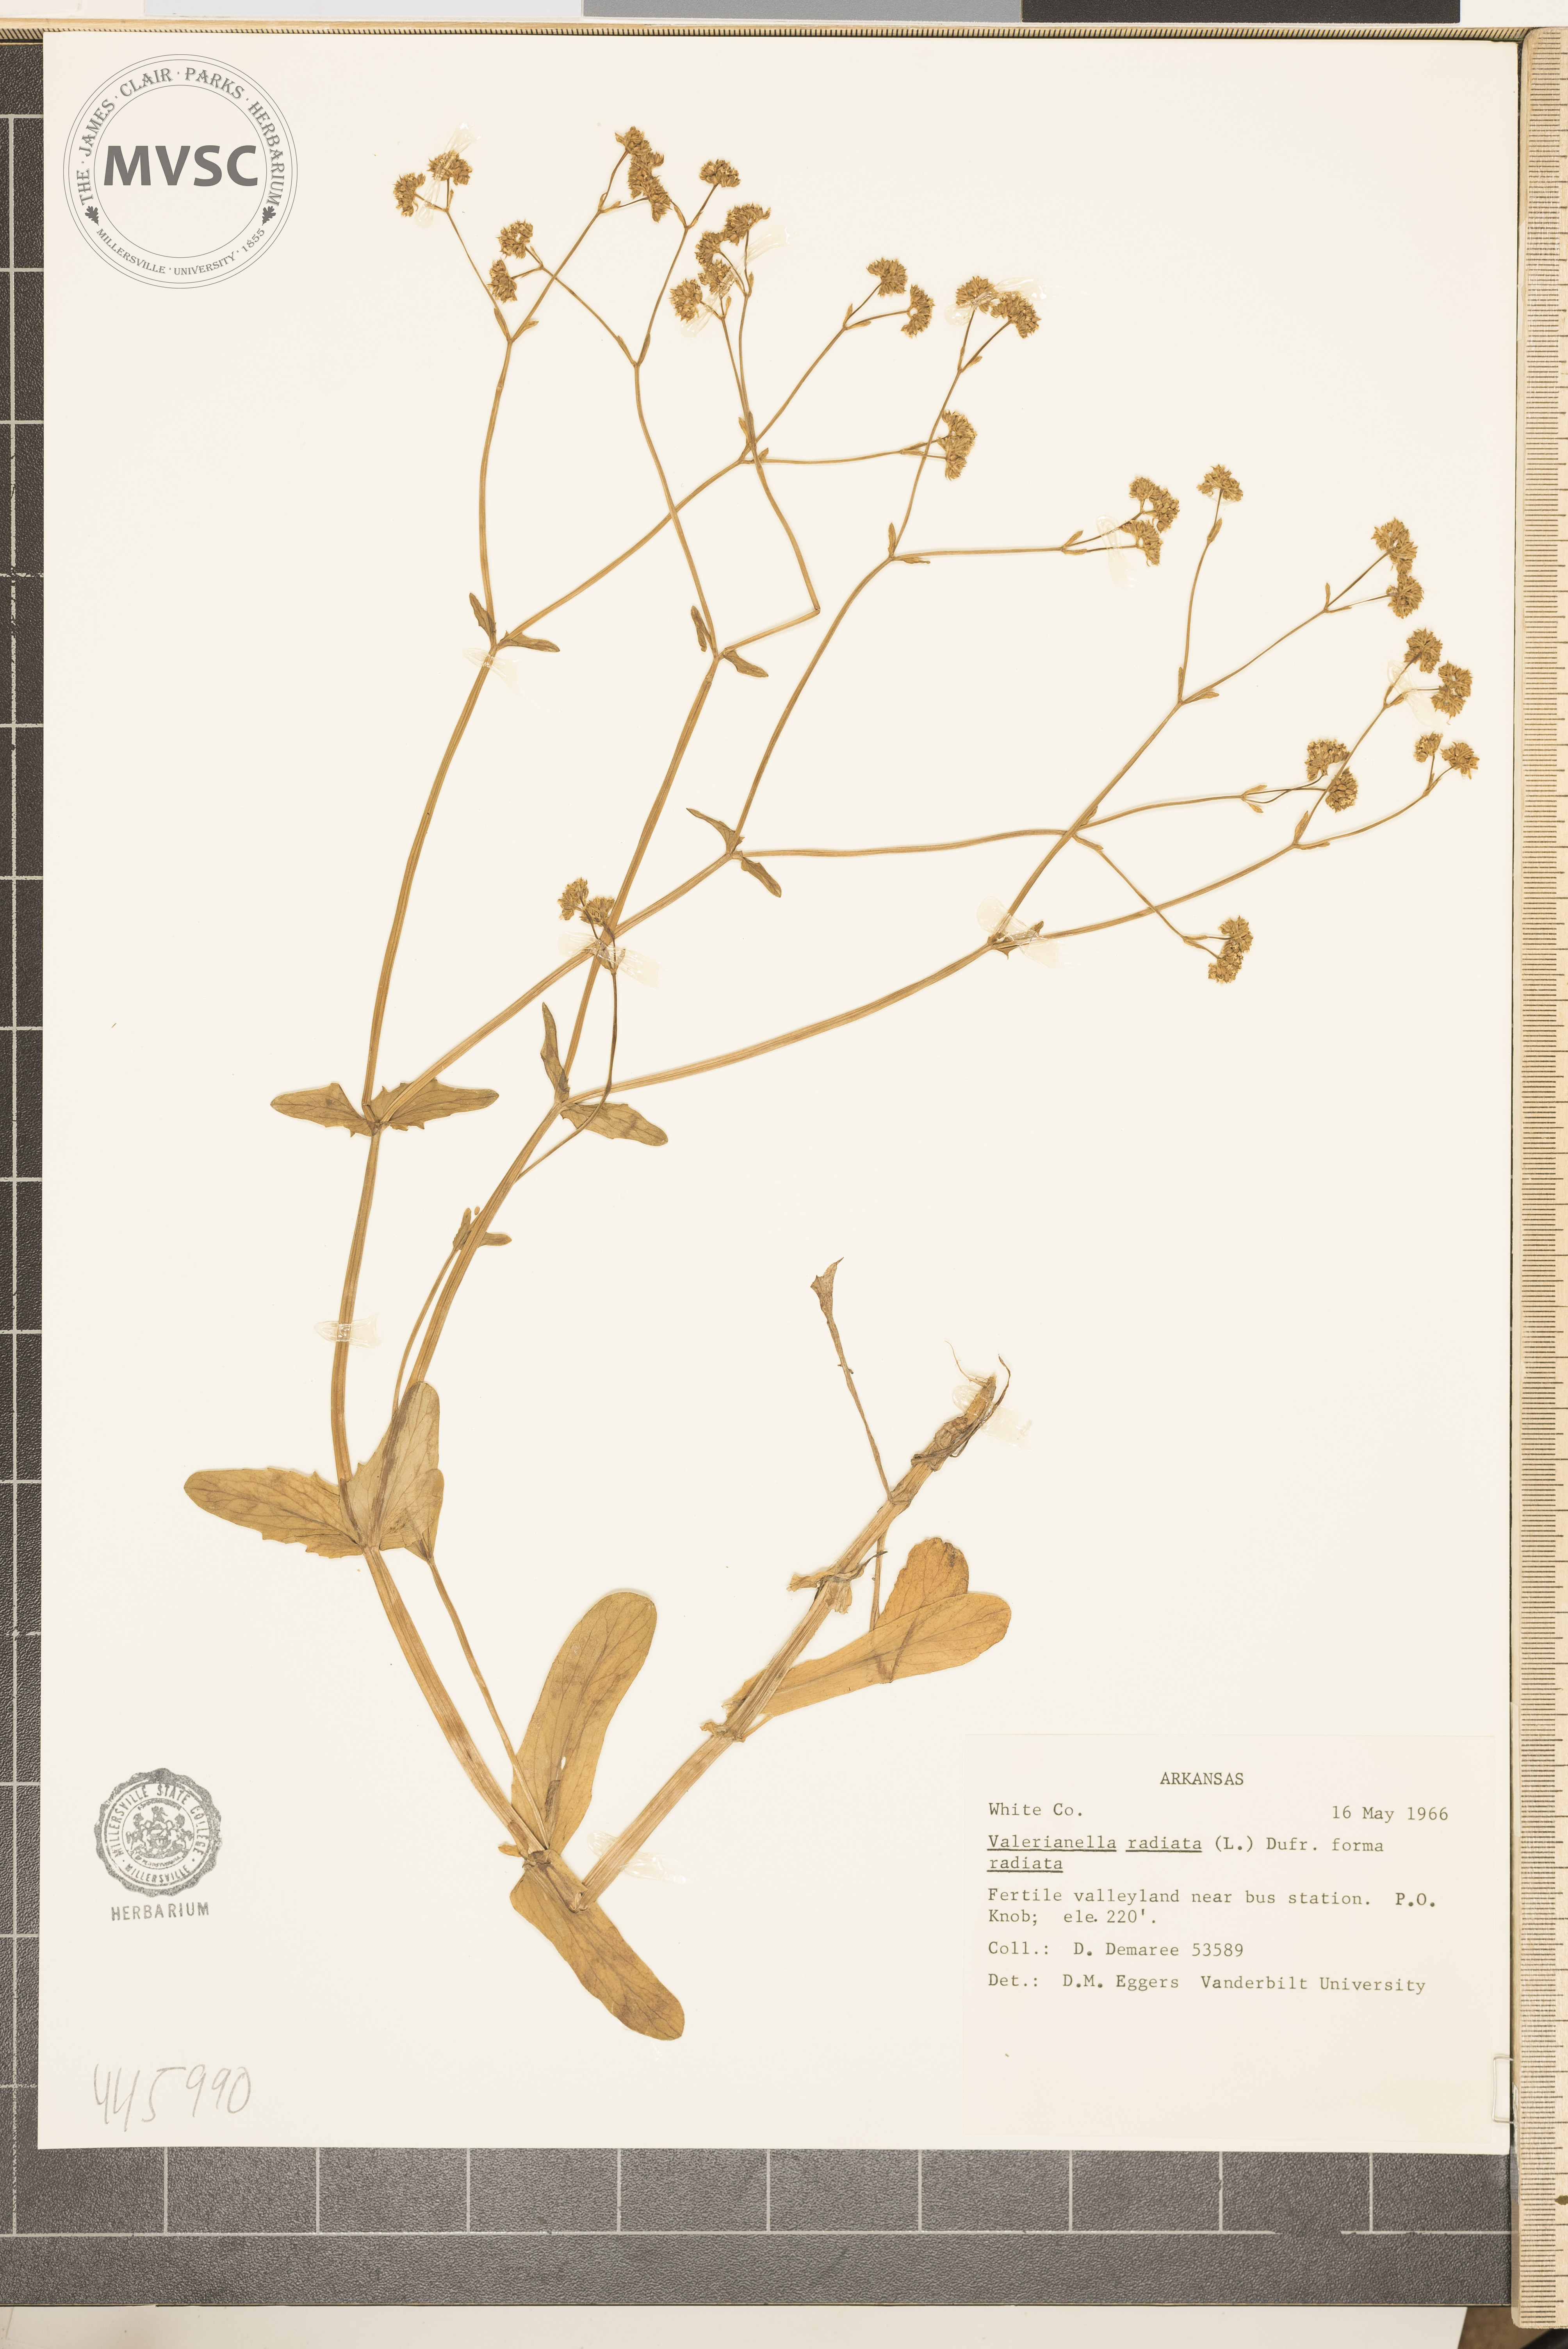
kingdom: Plantae
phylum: Tracheophyta
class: Magnoliopsida
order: Dipsacales
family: Caprifoliaceae
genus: Valerianella
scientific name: Valerianella radiata
